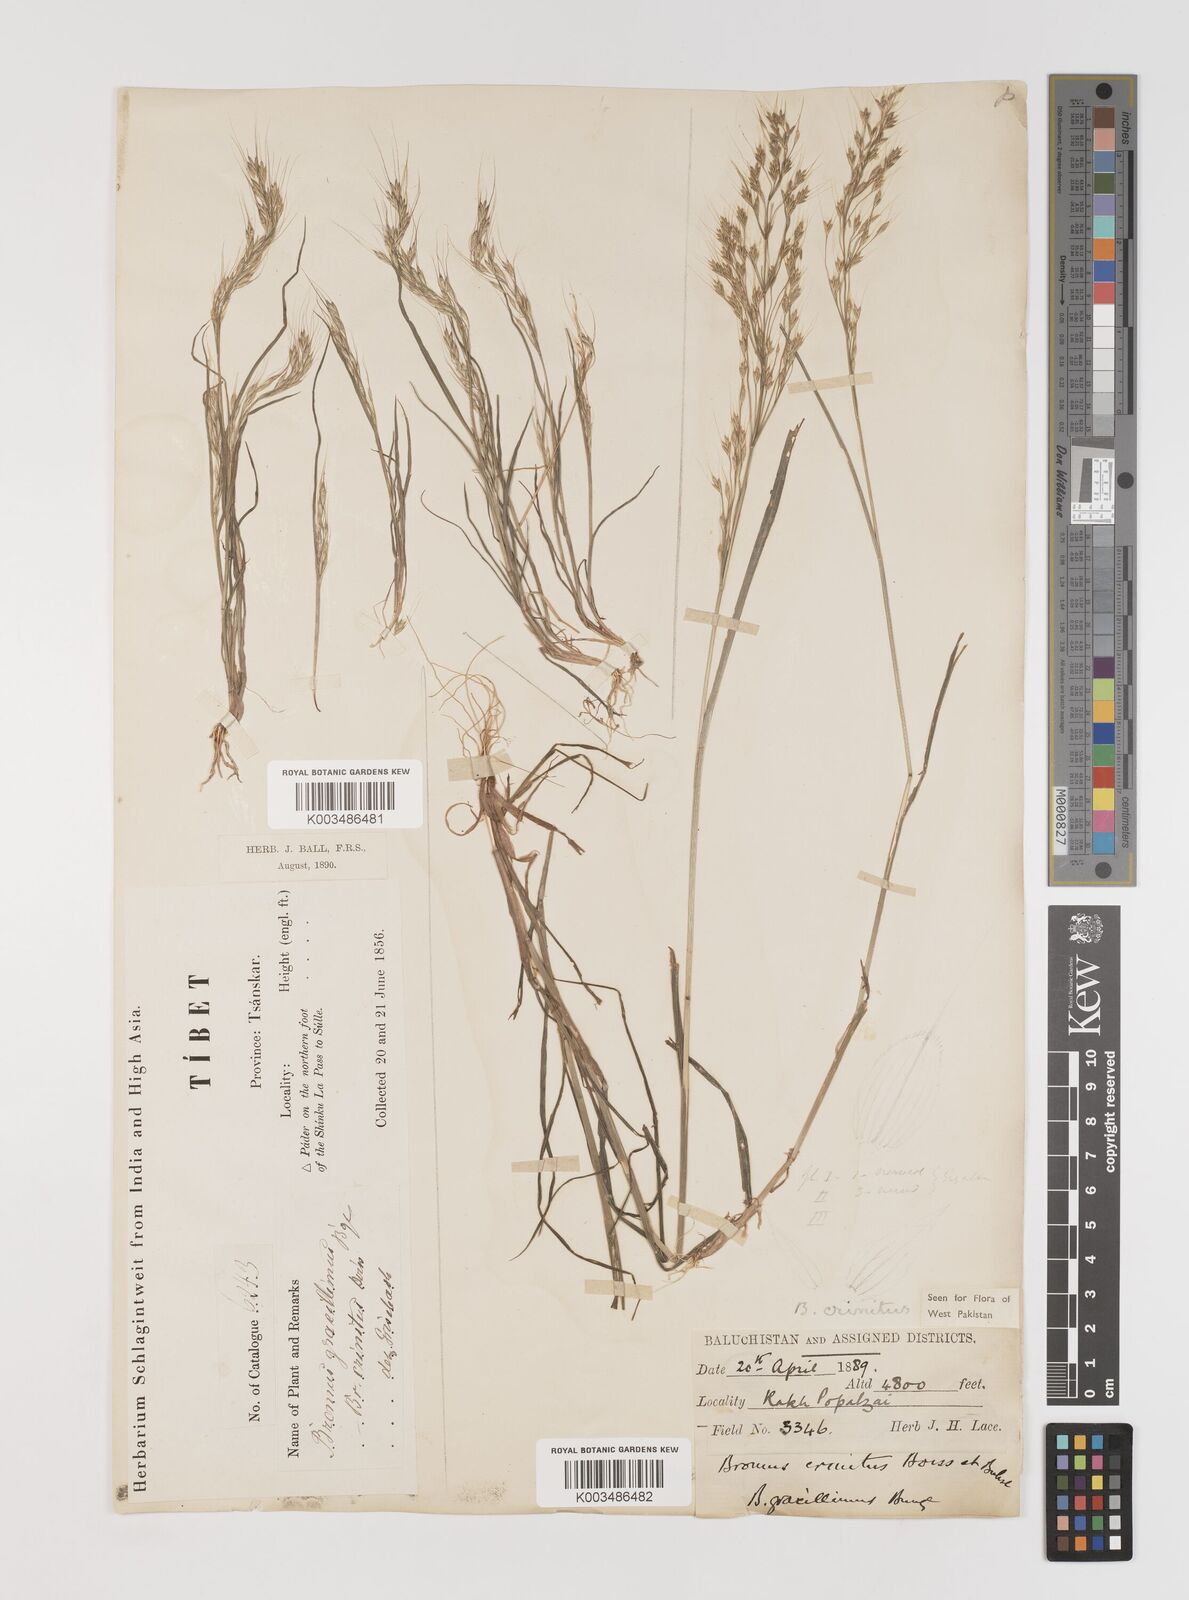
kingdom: Plantae
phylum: Tracheophyta
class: Liliopsida
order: Poales
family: Poaceae
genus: Bromus
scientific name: Bromus gracillimus
